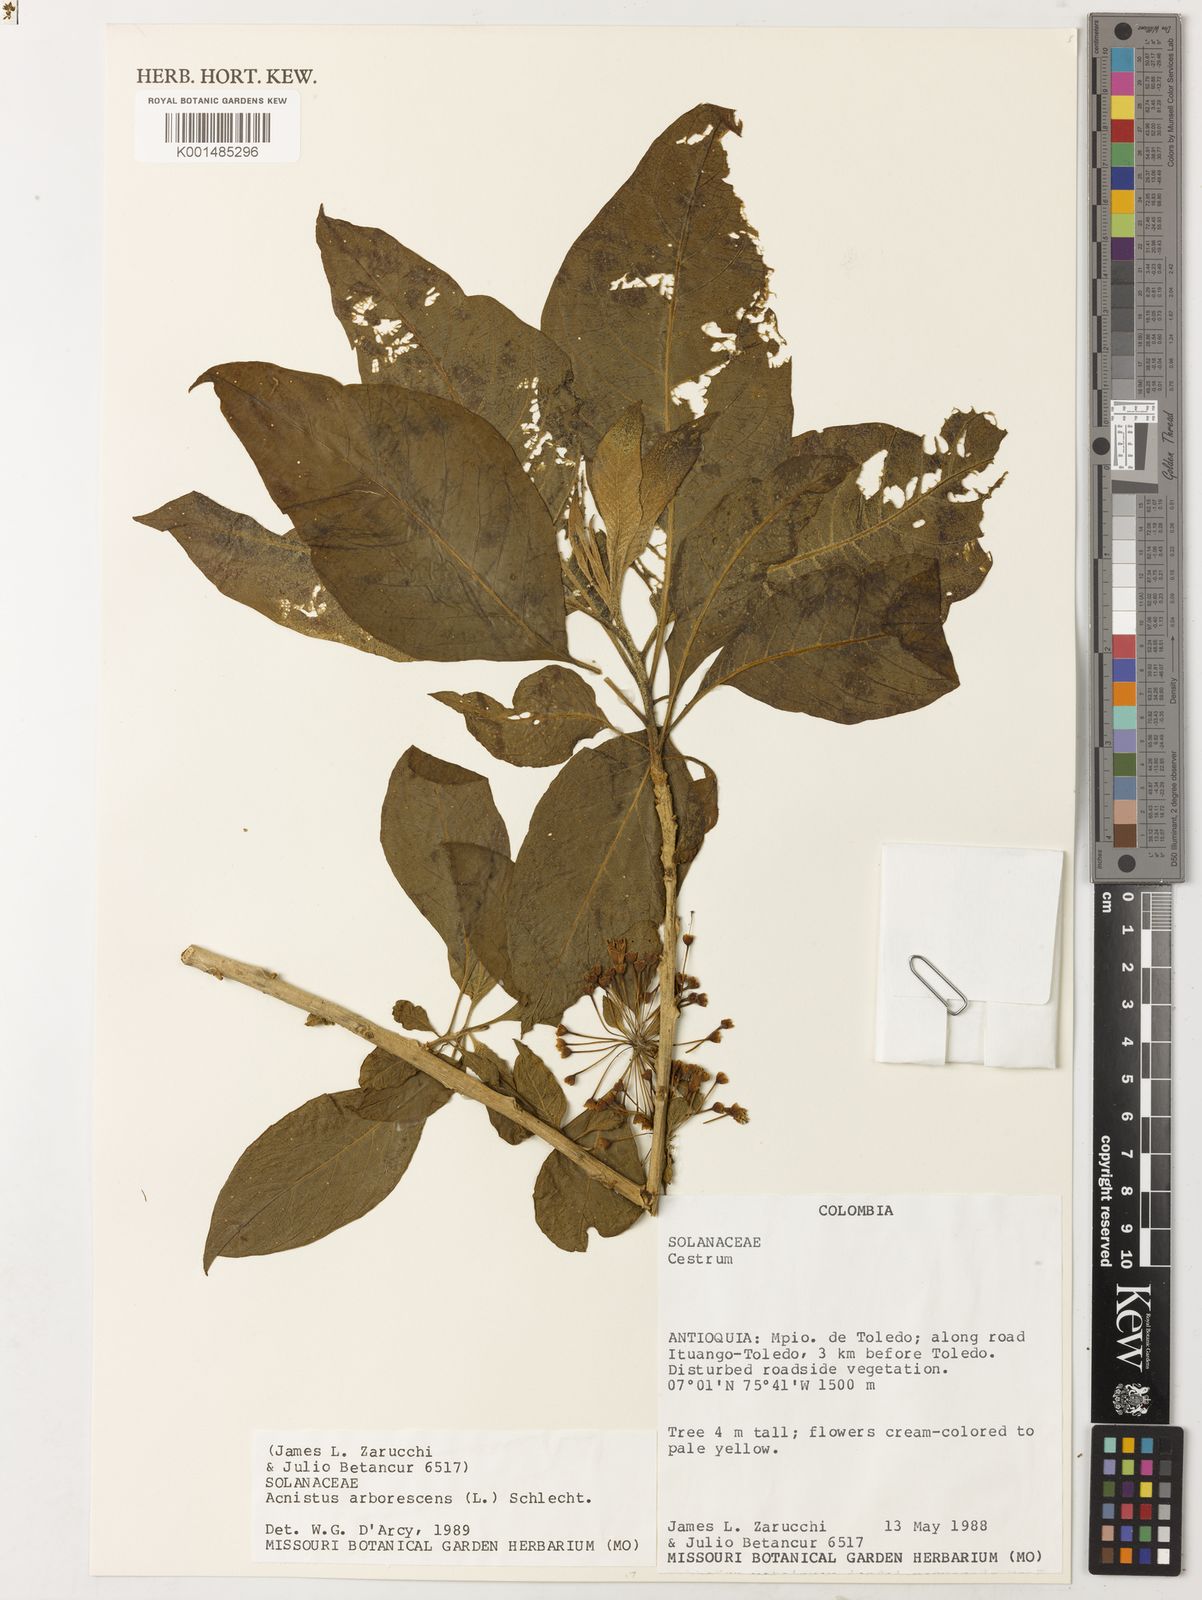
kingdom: Plantae
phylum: Tracheophyta
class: Magnoliopsida
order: Solanales
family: Solanaceae
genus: Iochroma
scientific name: Iochroma arborescens
